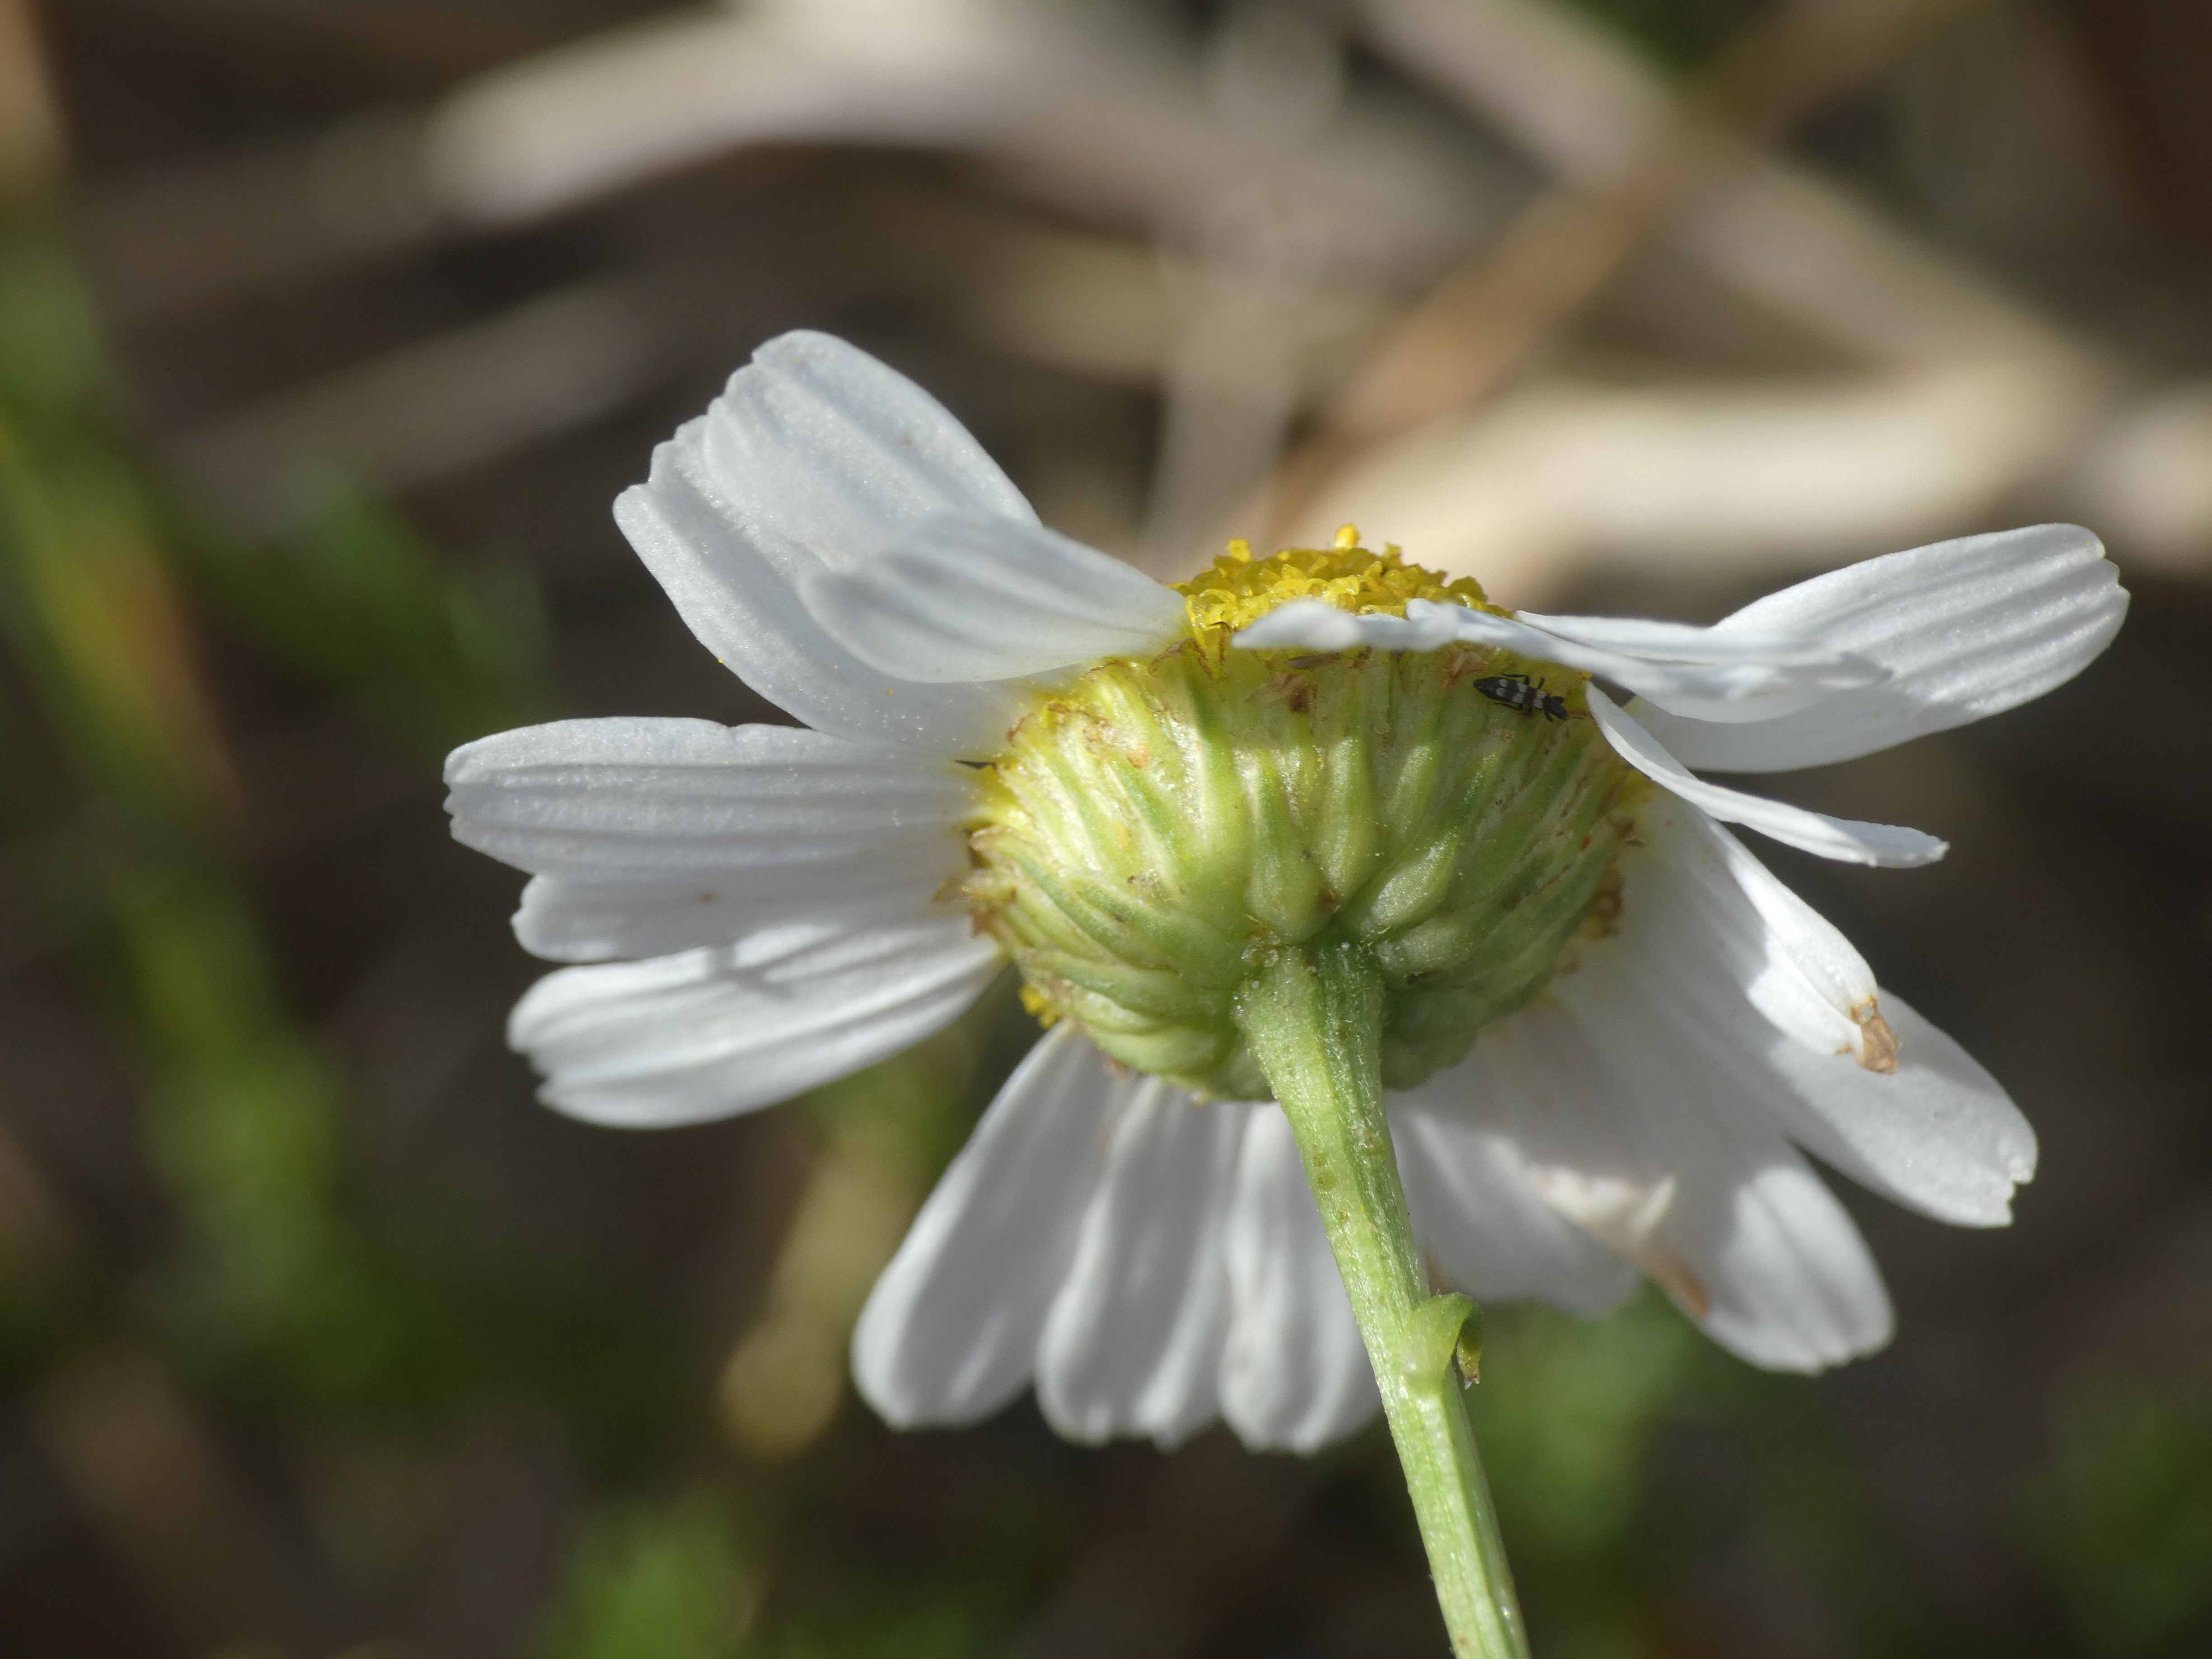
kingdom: Plantae
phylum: Tracheophyta
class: Magnoliopsida
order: Asterales
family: Asteraceae
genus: Tripleurospermum
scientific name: Tripleurospermum maritimum
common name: Strand-kamille
